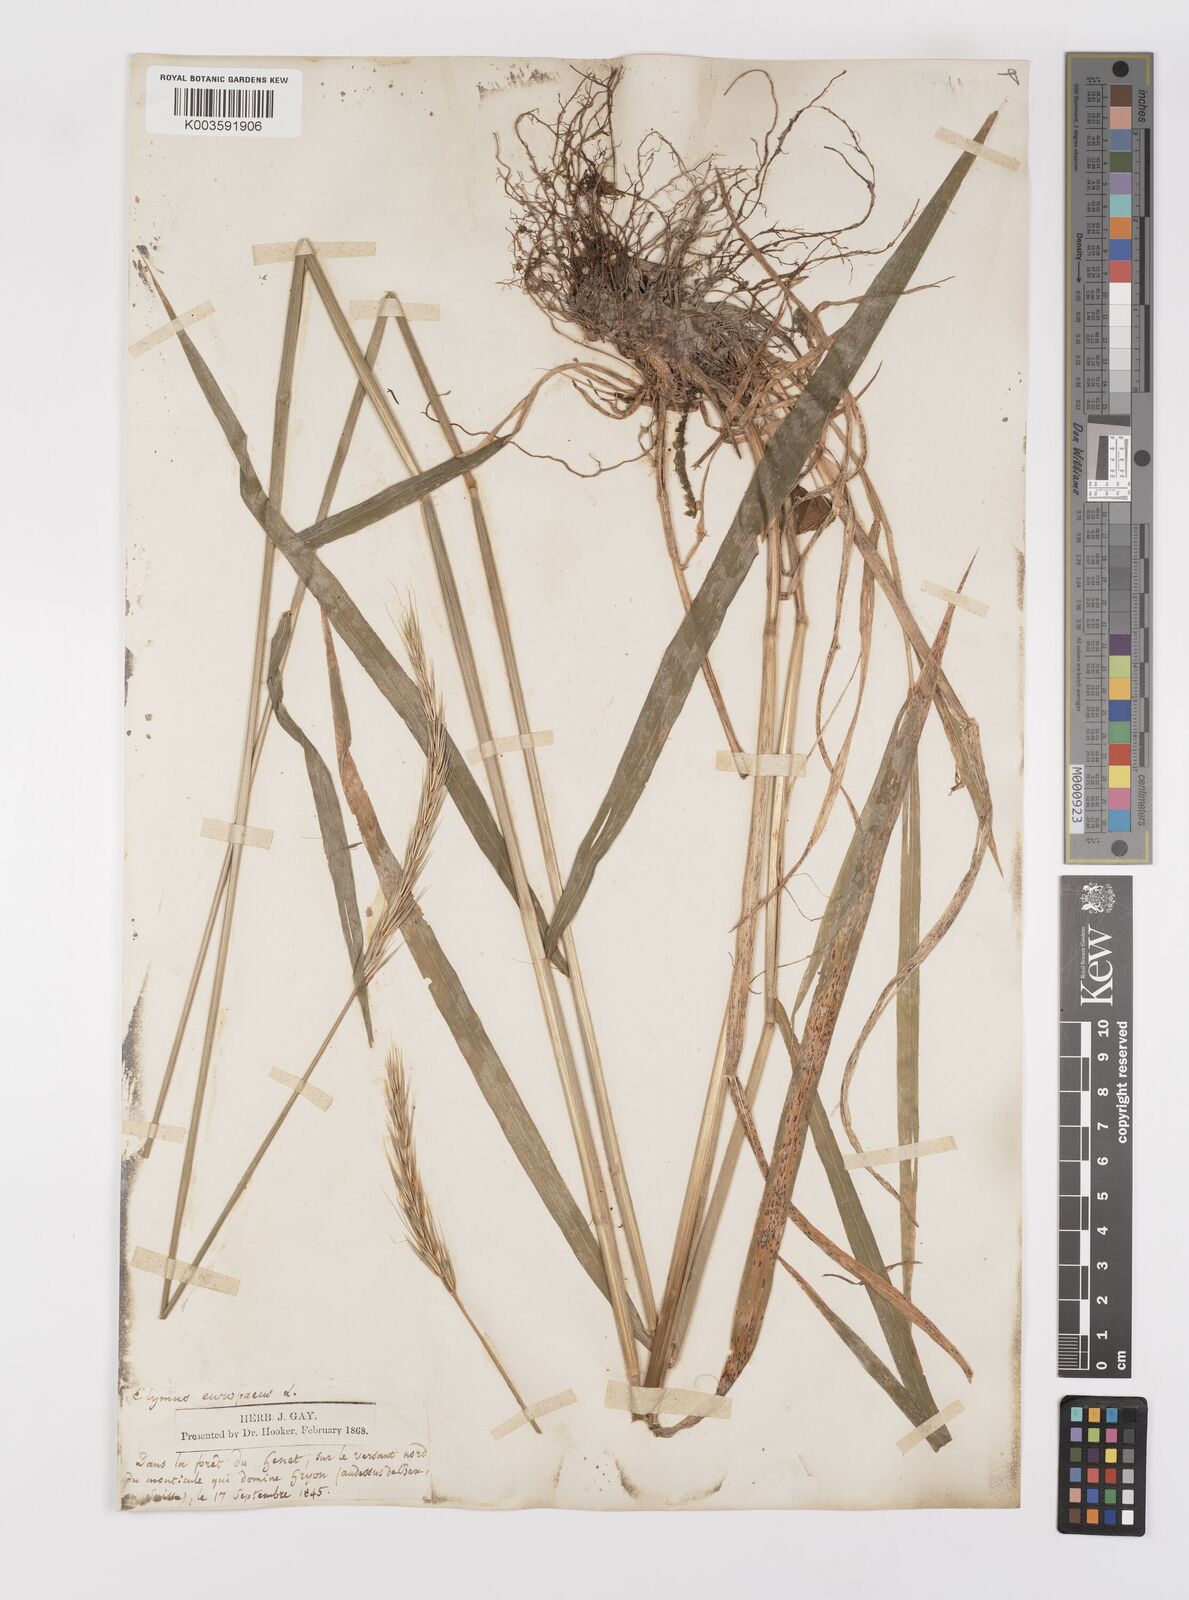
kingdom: Plantae
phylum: Tracheophyta
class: Liliopsida
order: Poales
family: Poaceae
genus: Hordelymus
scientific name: Hordelymus europaeus
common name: Wood-barley
